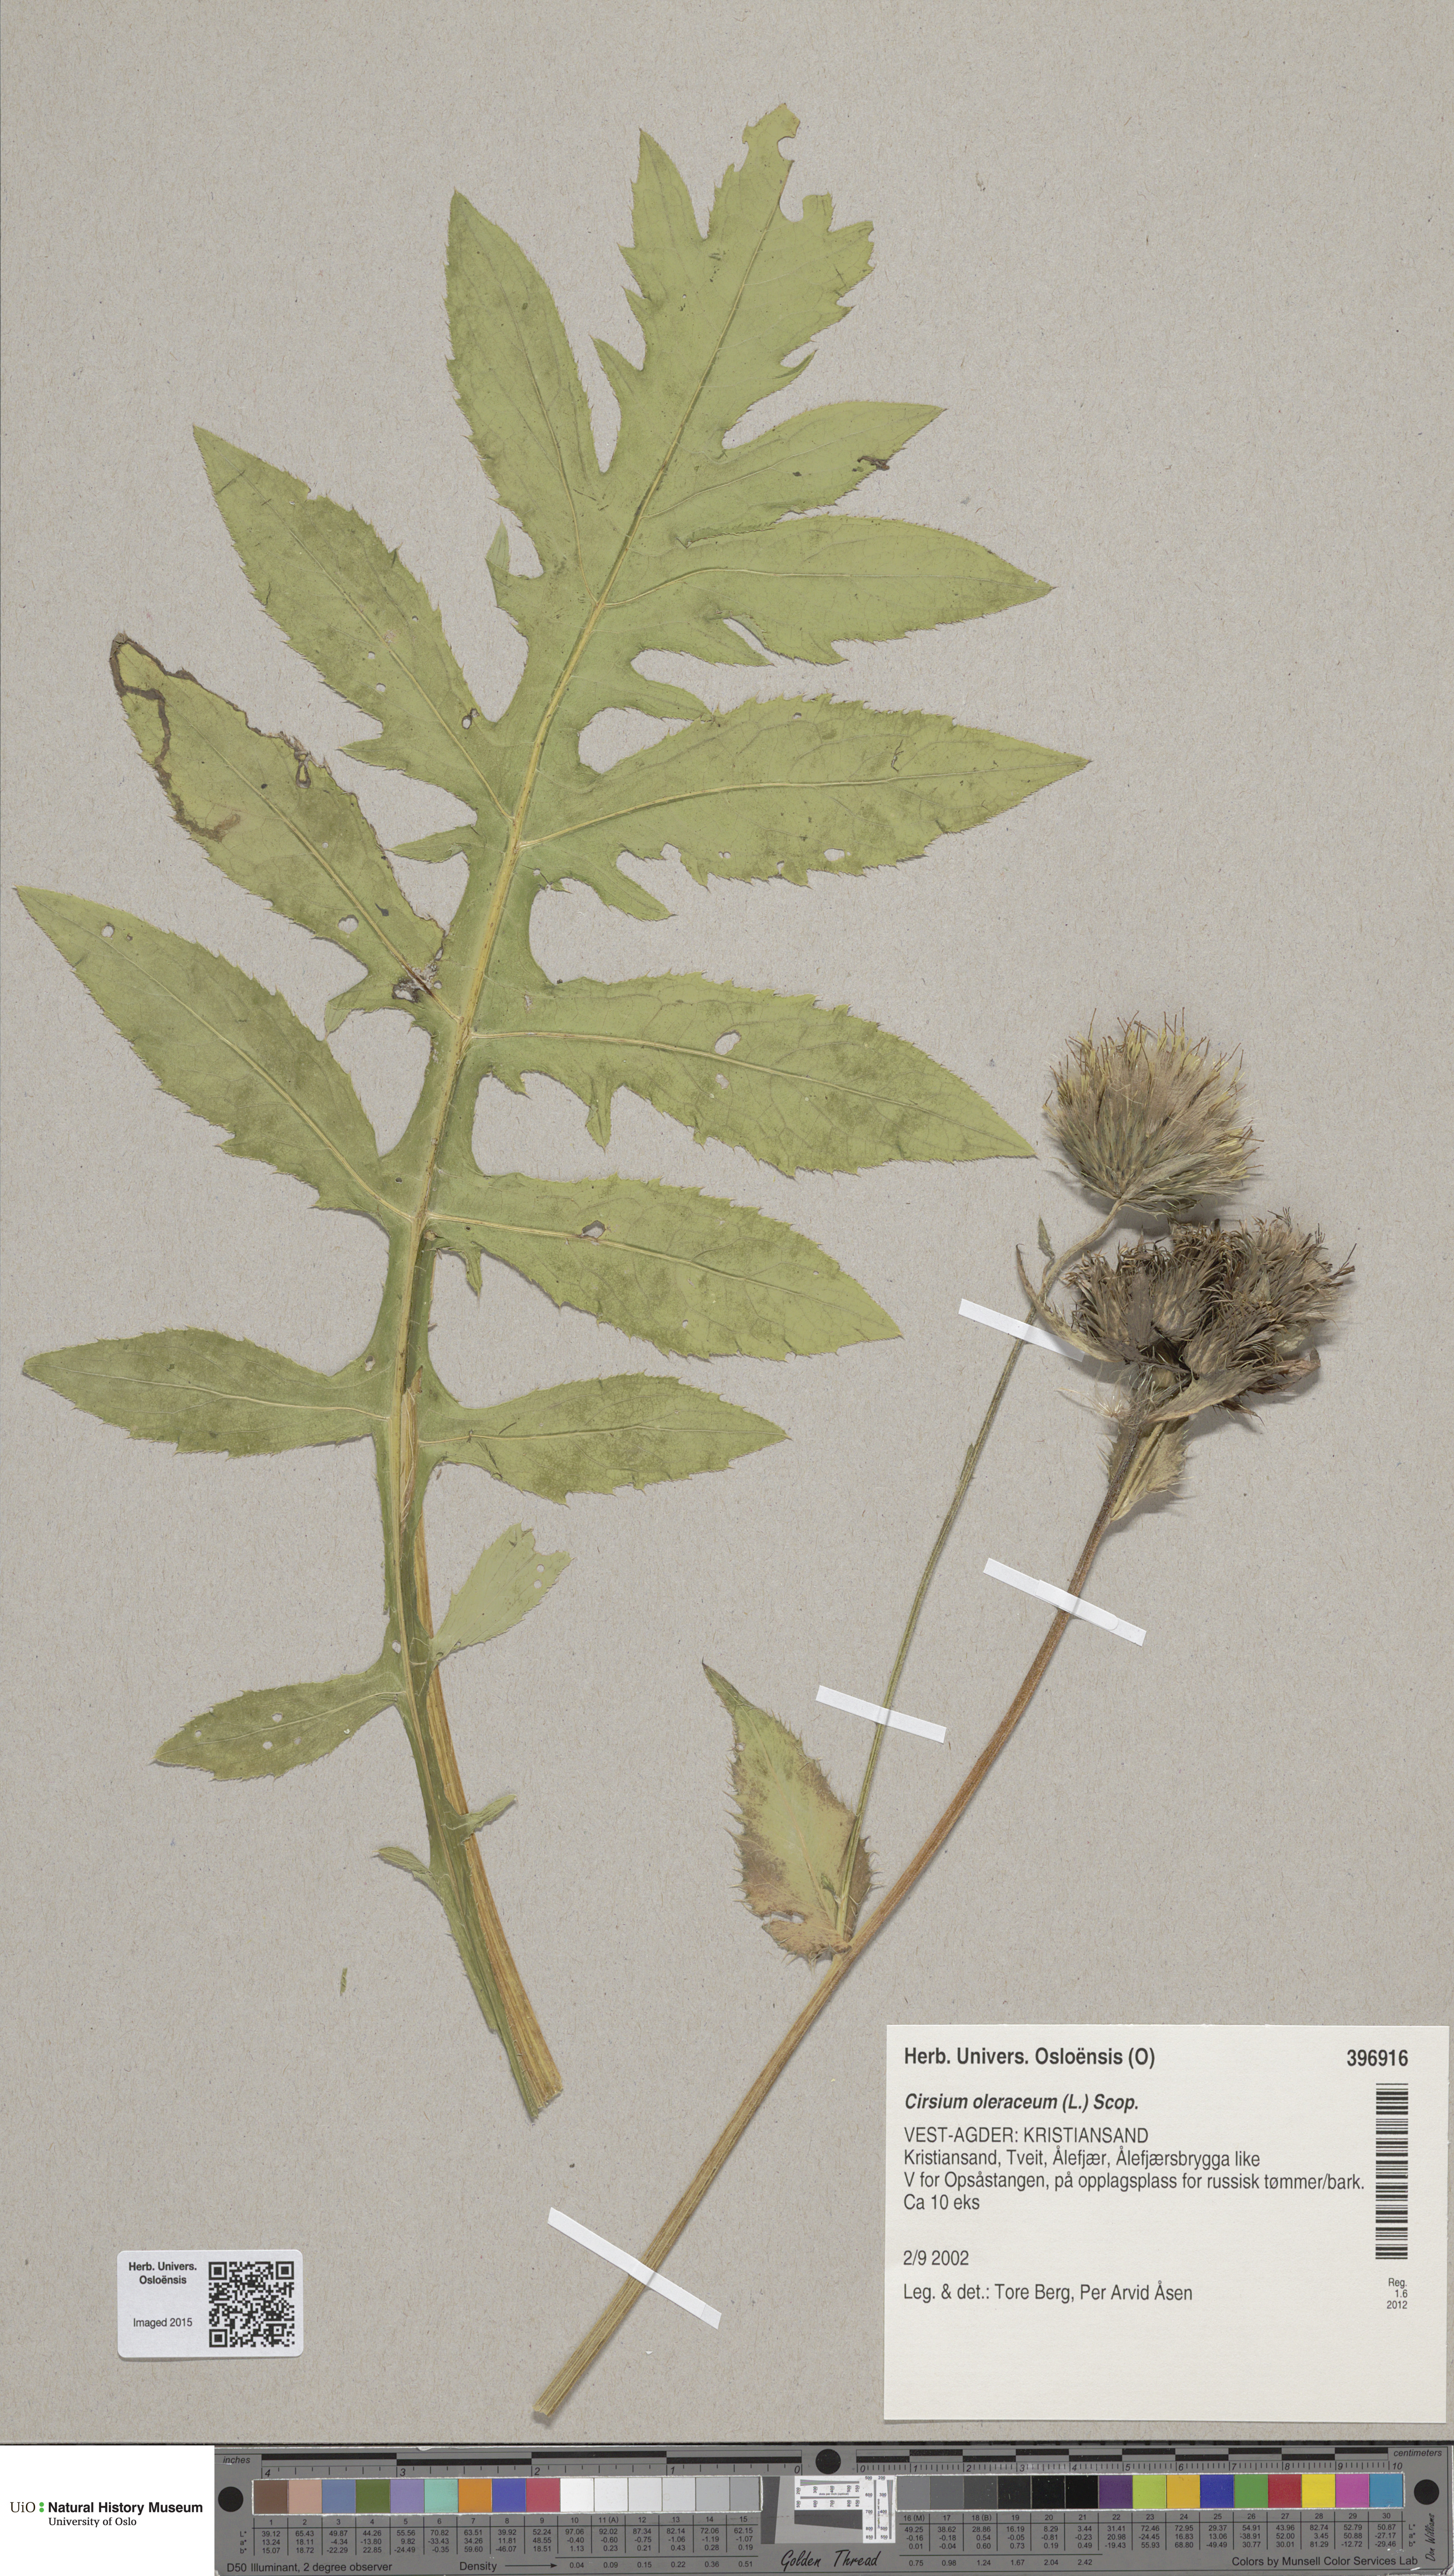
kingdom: Plantae
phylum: Tracheophyta
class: Magnoliopsida
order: Asterales
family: Asteraceae
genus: Cirsium
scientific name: Cirsium oleraceum
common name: Cabbage thistle
